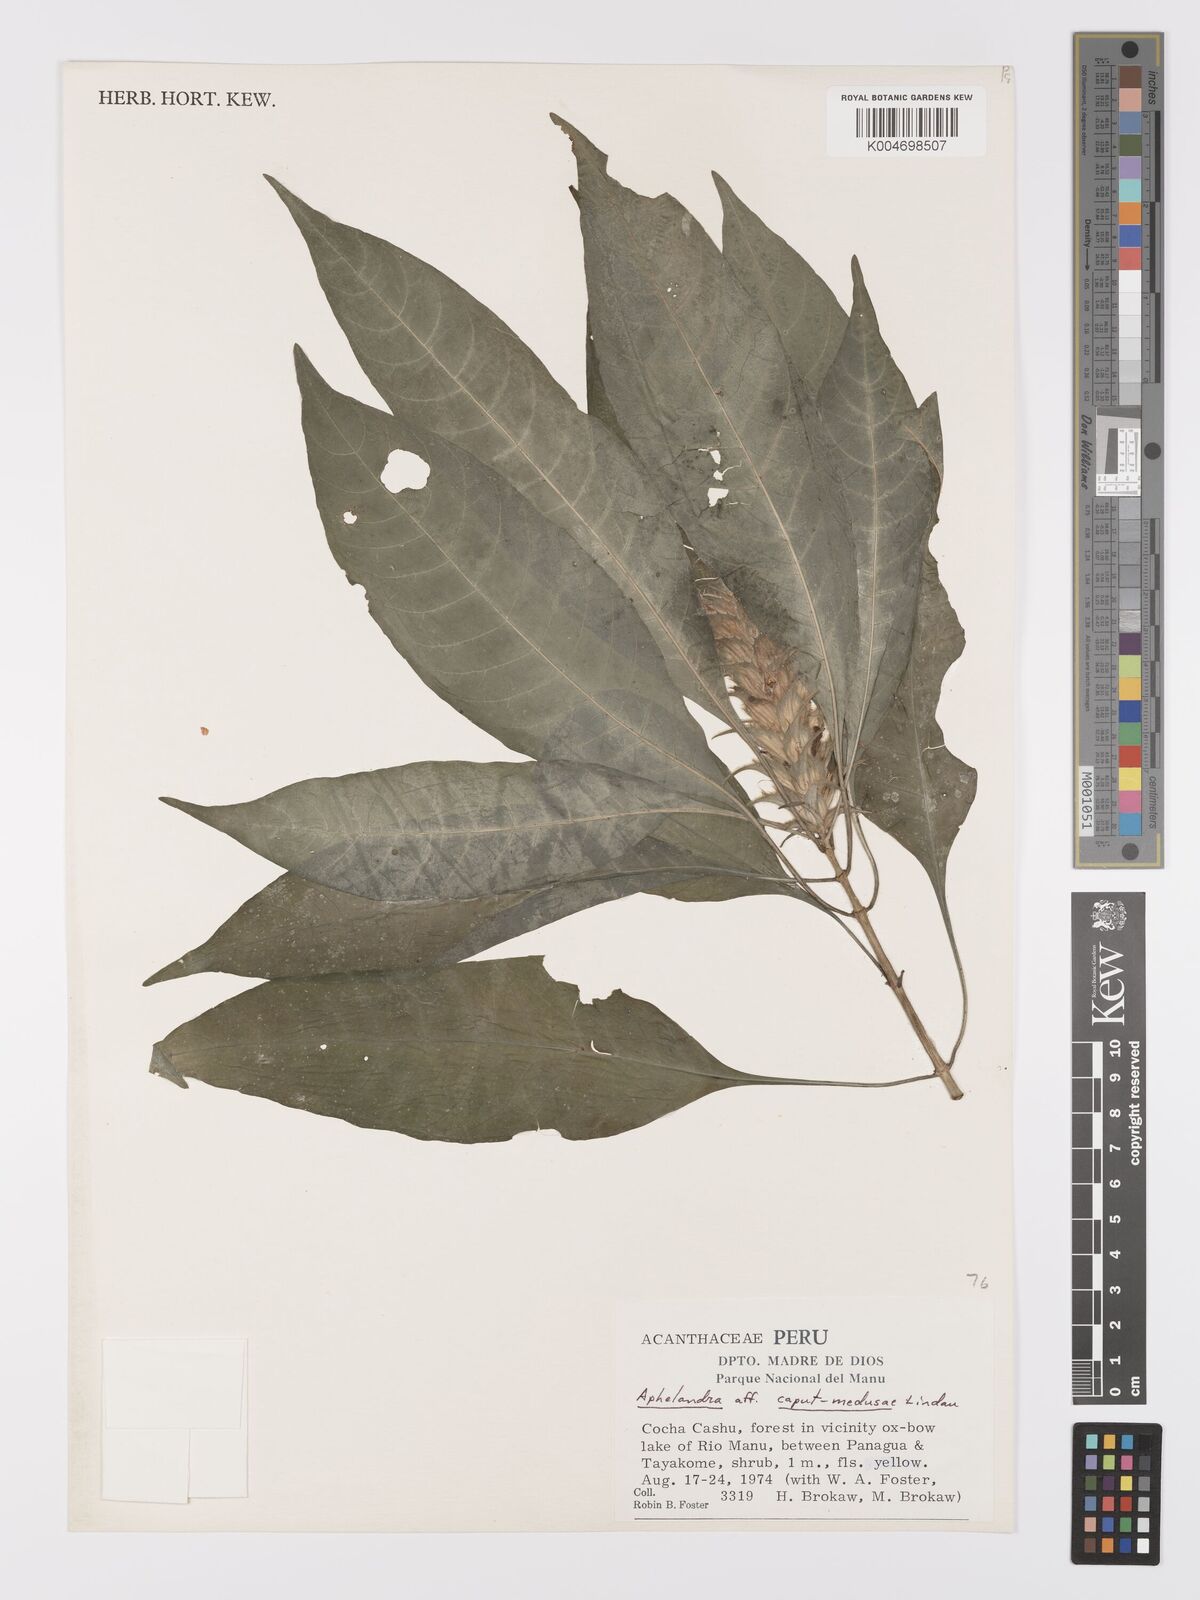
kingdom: Plantae
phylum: Tracheophyta
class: Magnoliopsida
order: Lamiales
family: Acanthaceae
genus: Aphelandra
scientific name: Aphelandra caput-medusae
